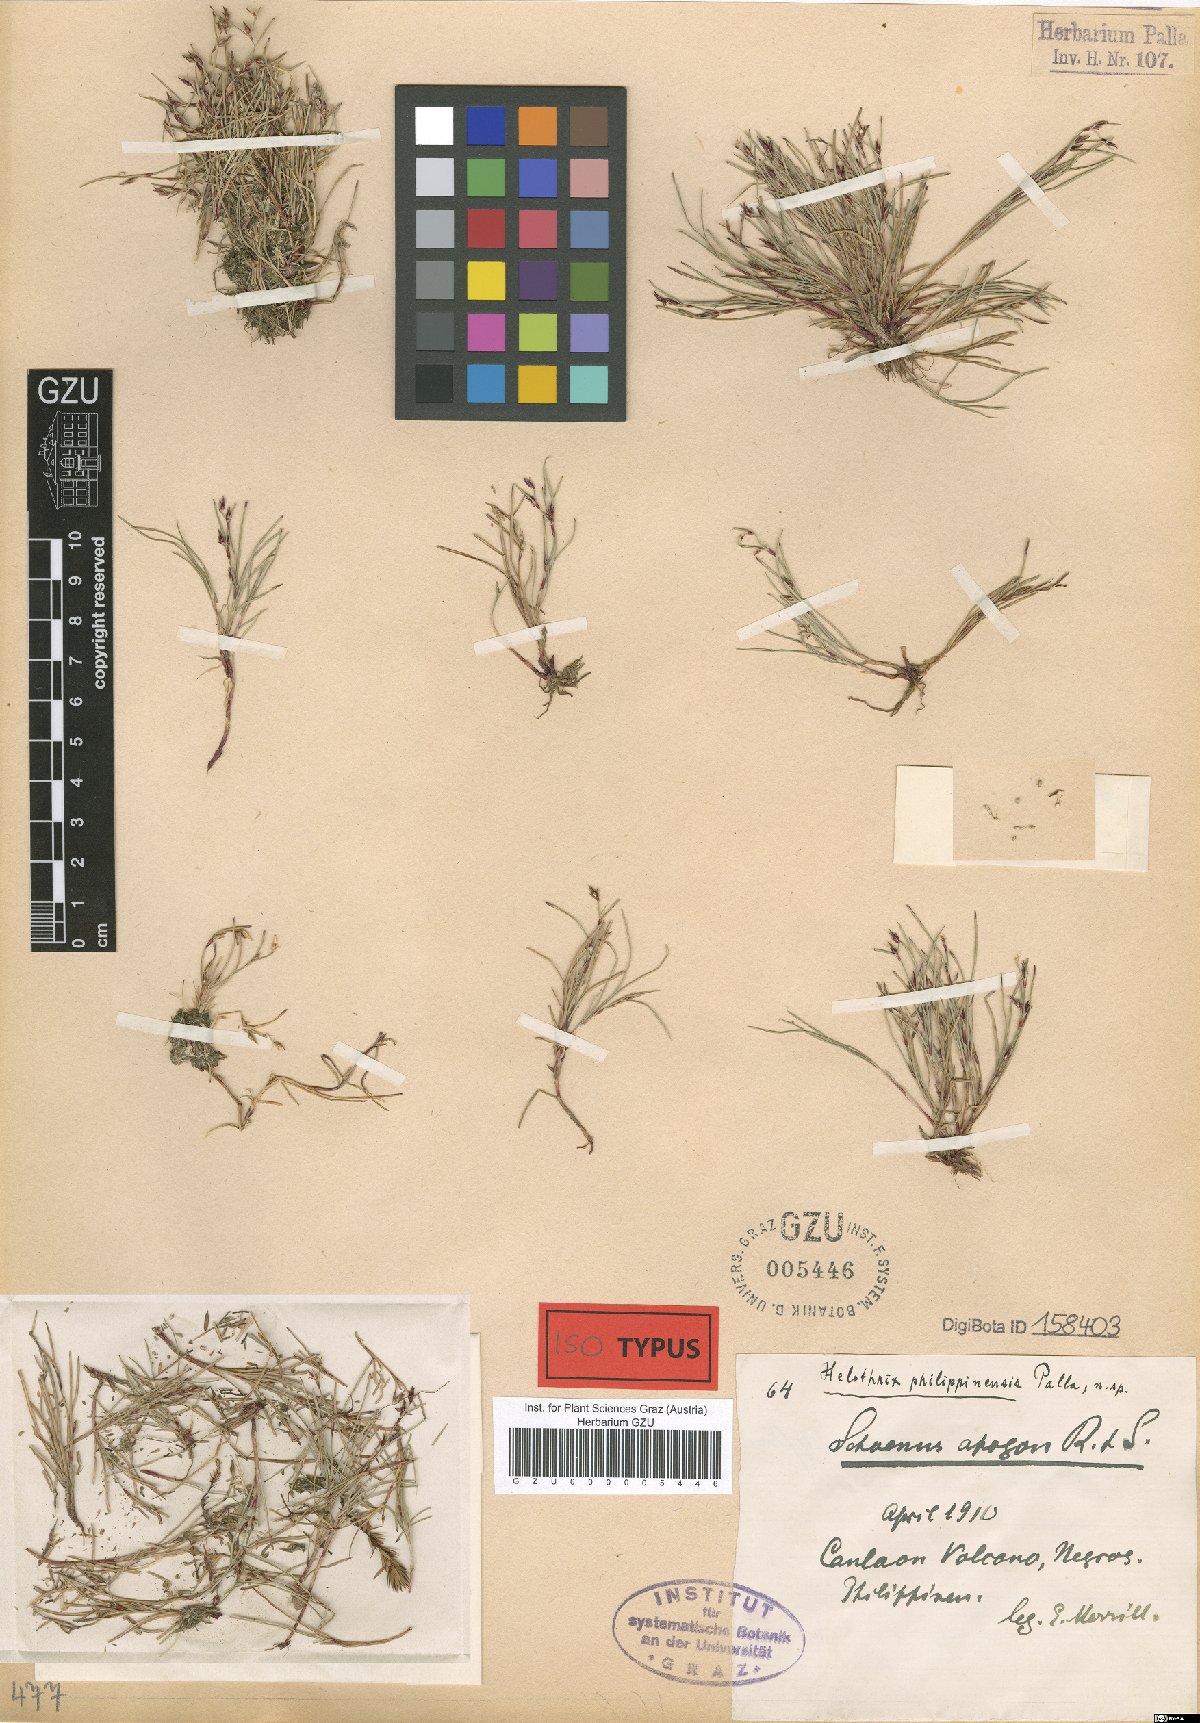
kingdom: Plantae
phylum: Tracheophyta
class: Liliopsida
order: Poales
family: Cyperaceae
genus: Schoenus
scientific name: Schoenus maschalinus
